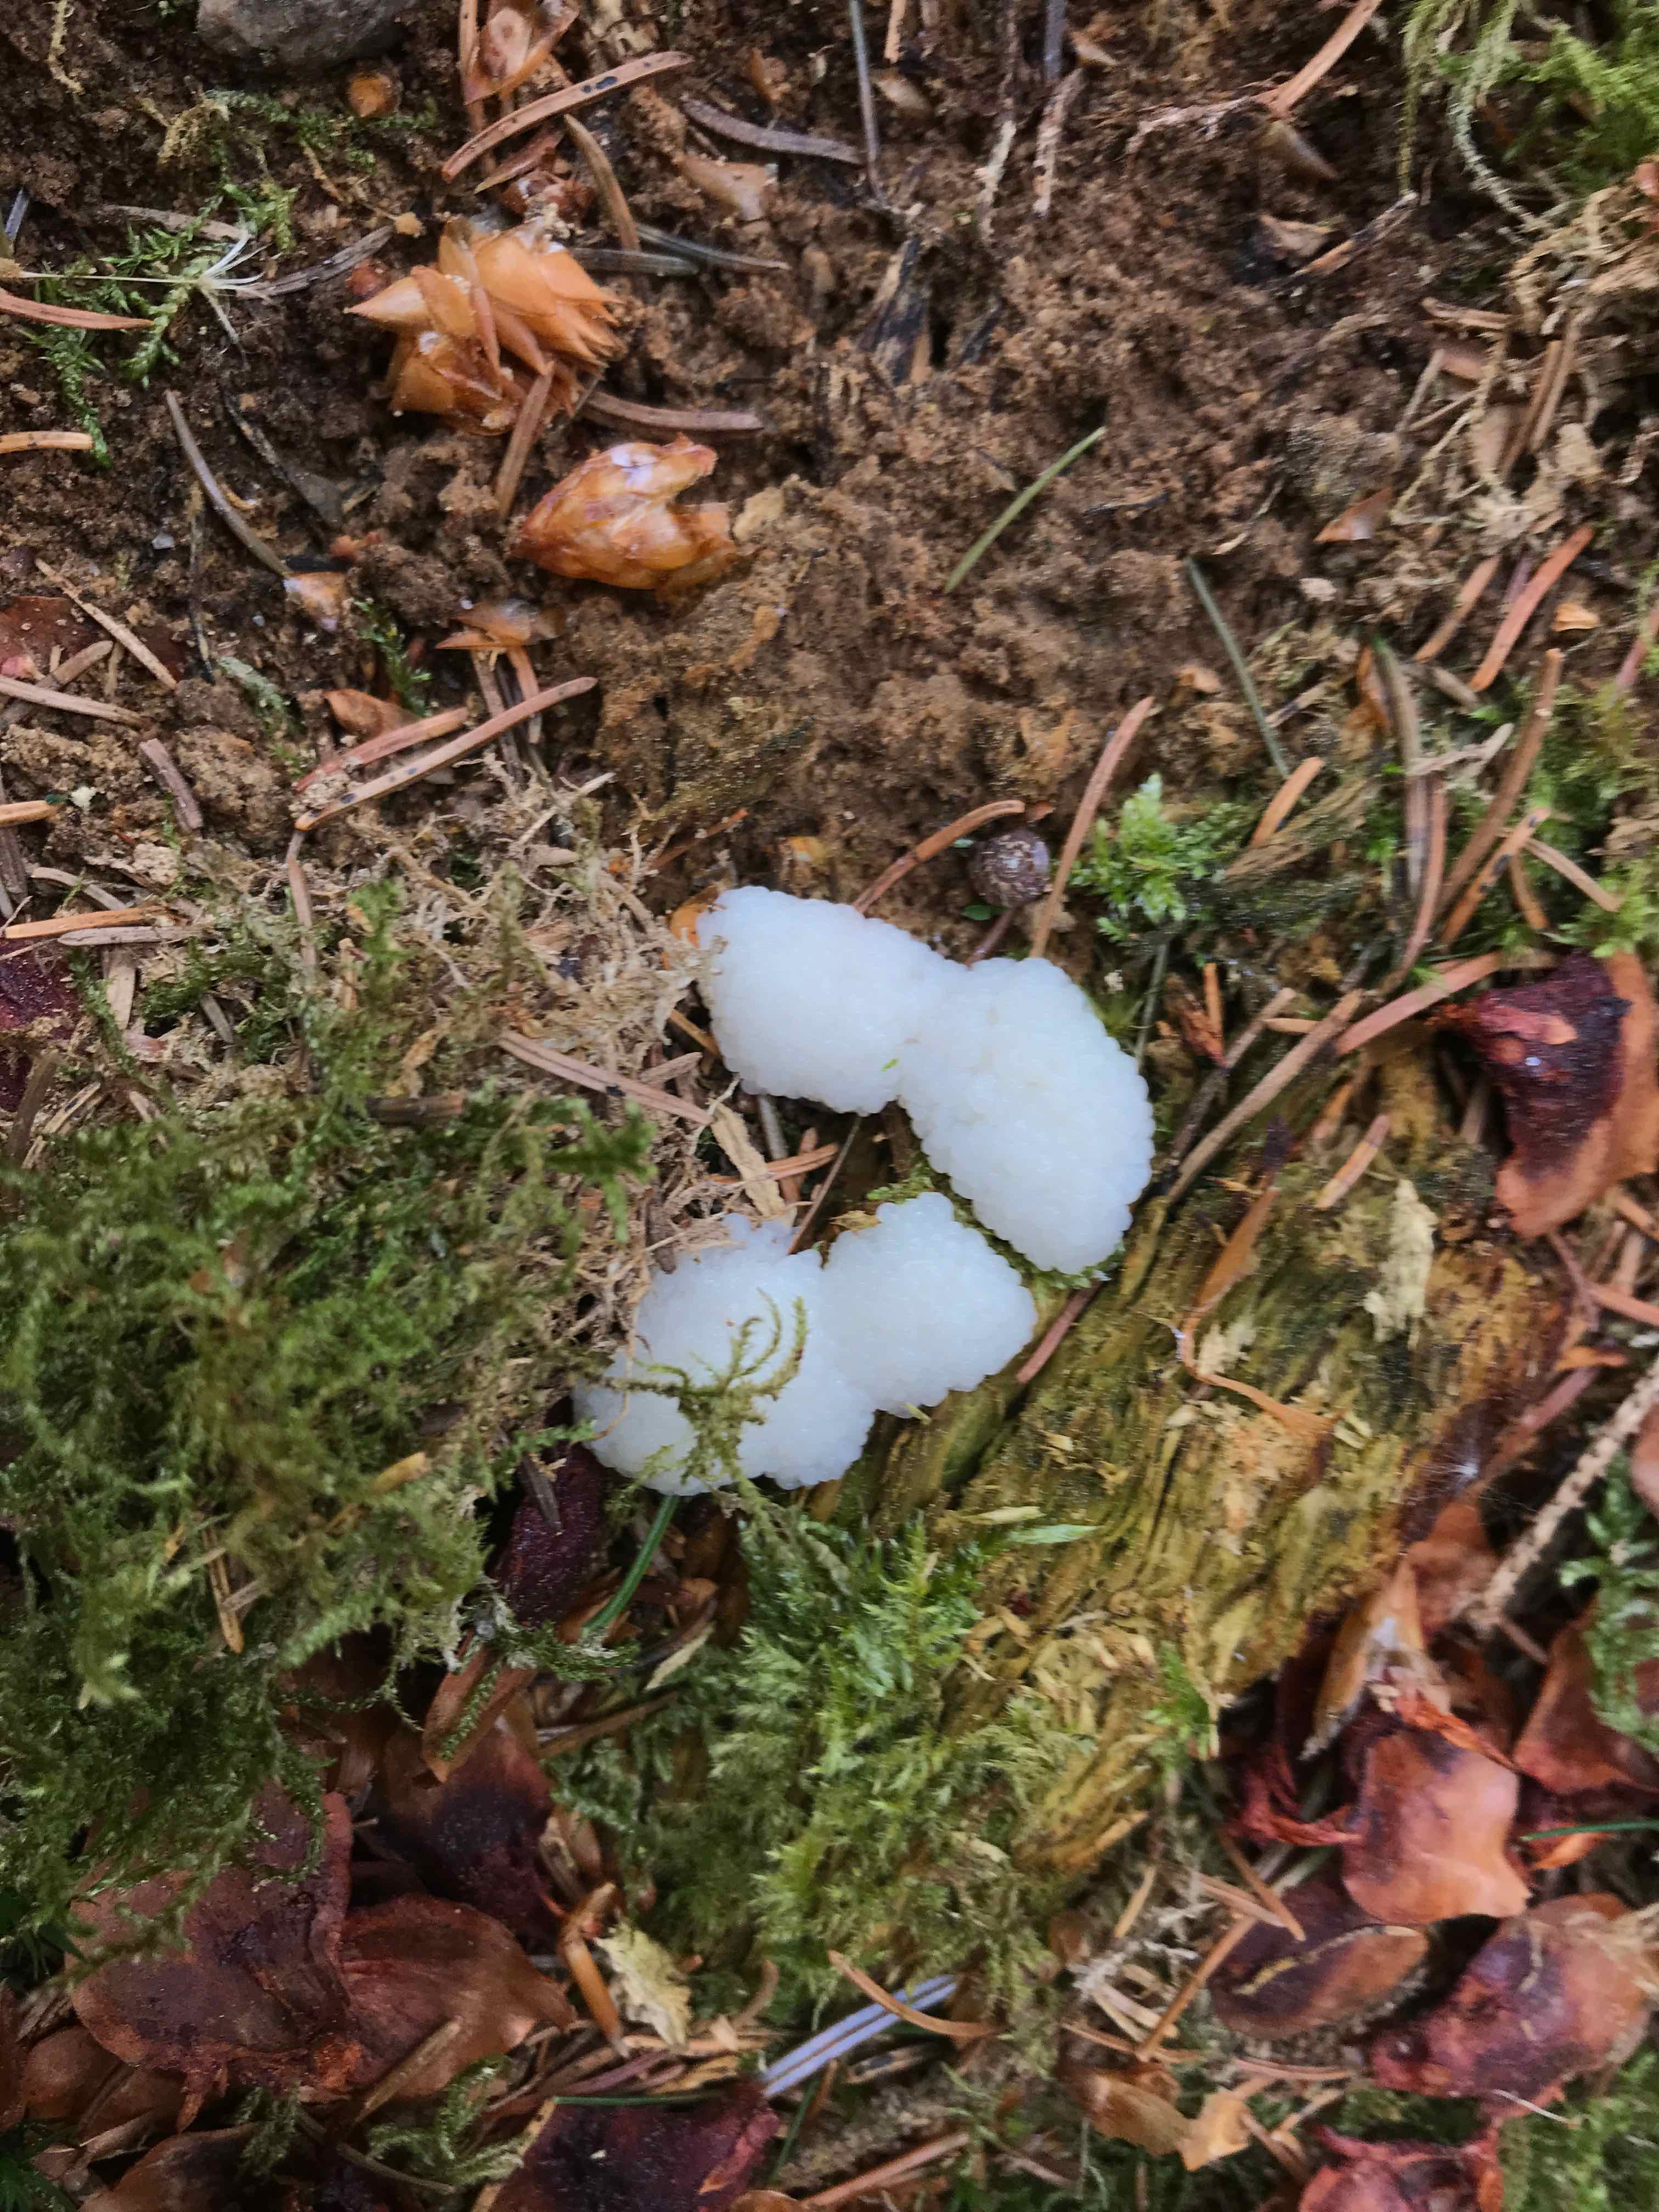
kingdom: Protozoa
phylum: Mycetozoa
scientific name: Mycetozoa
